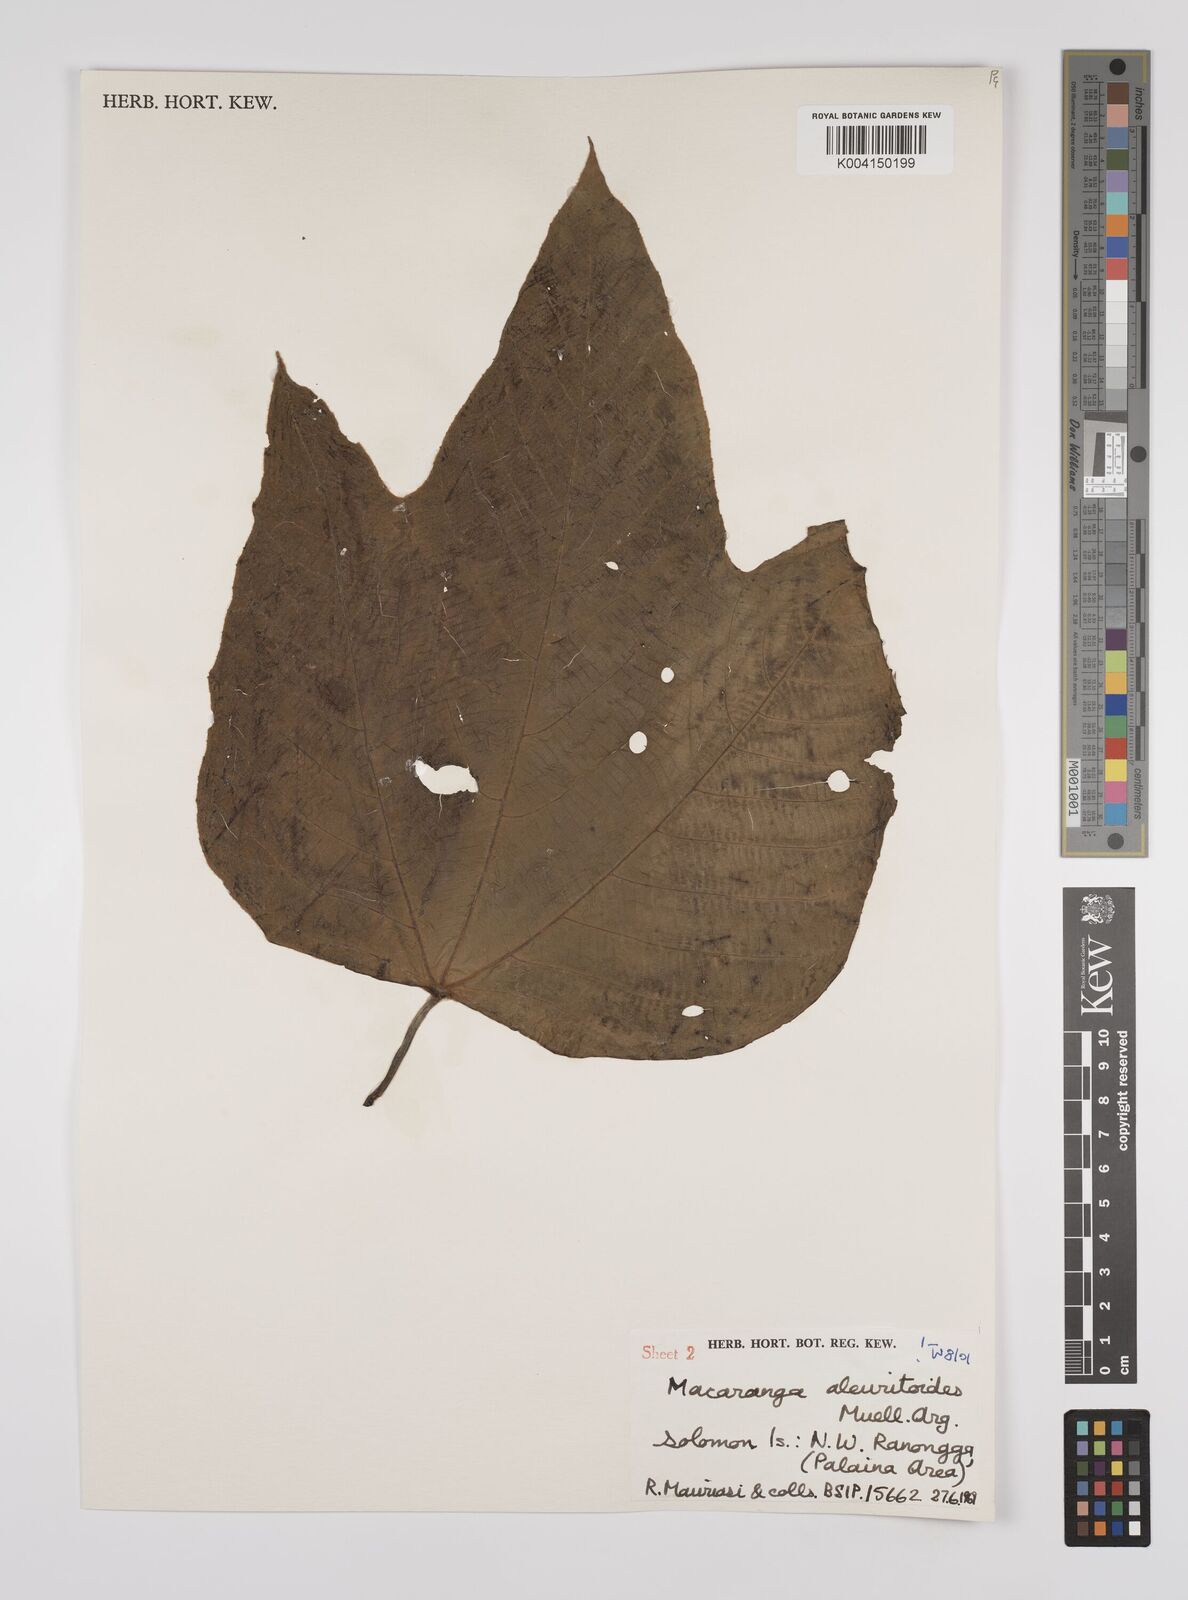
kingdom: Plantae
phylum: Tracheophyta
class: Magnoliopsida
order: Malpighiales
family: Euphorbiaceae
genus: Macaranga
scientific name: Macaranga aleuritoides
